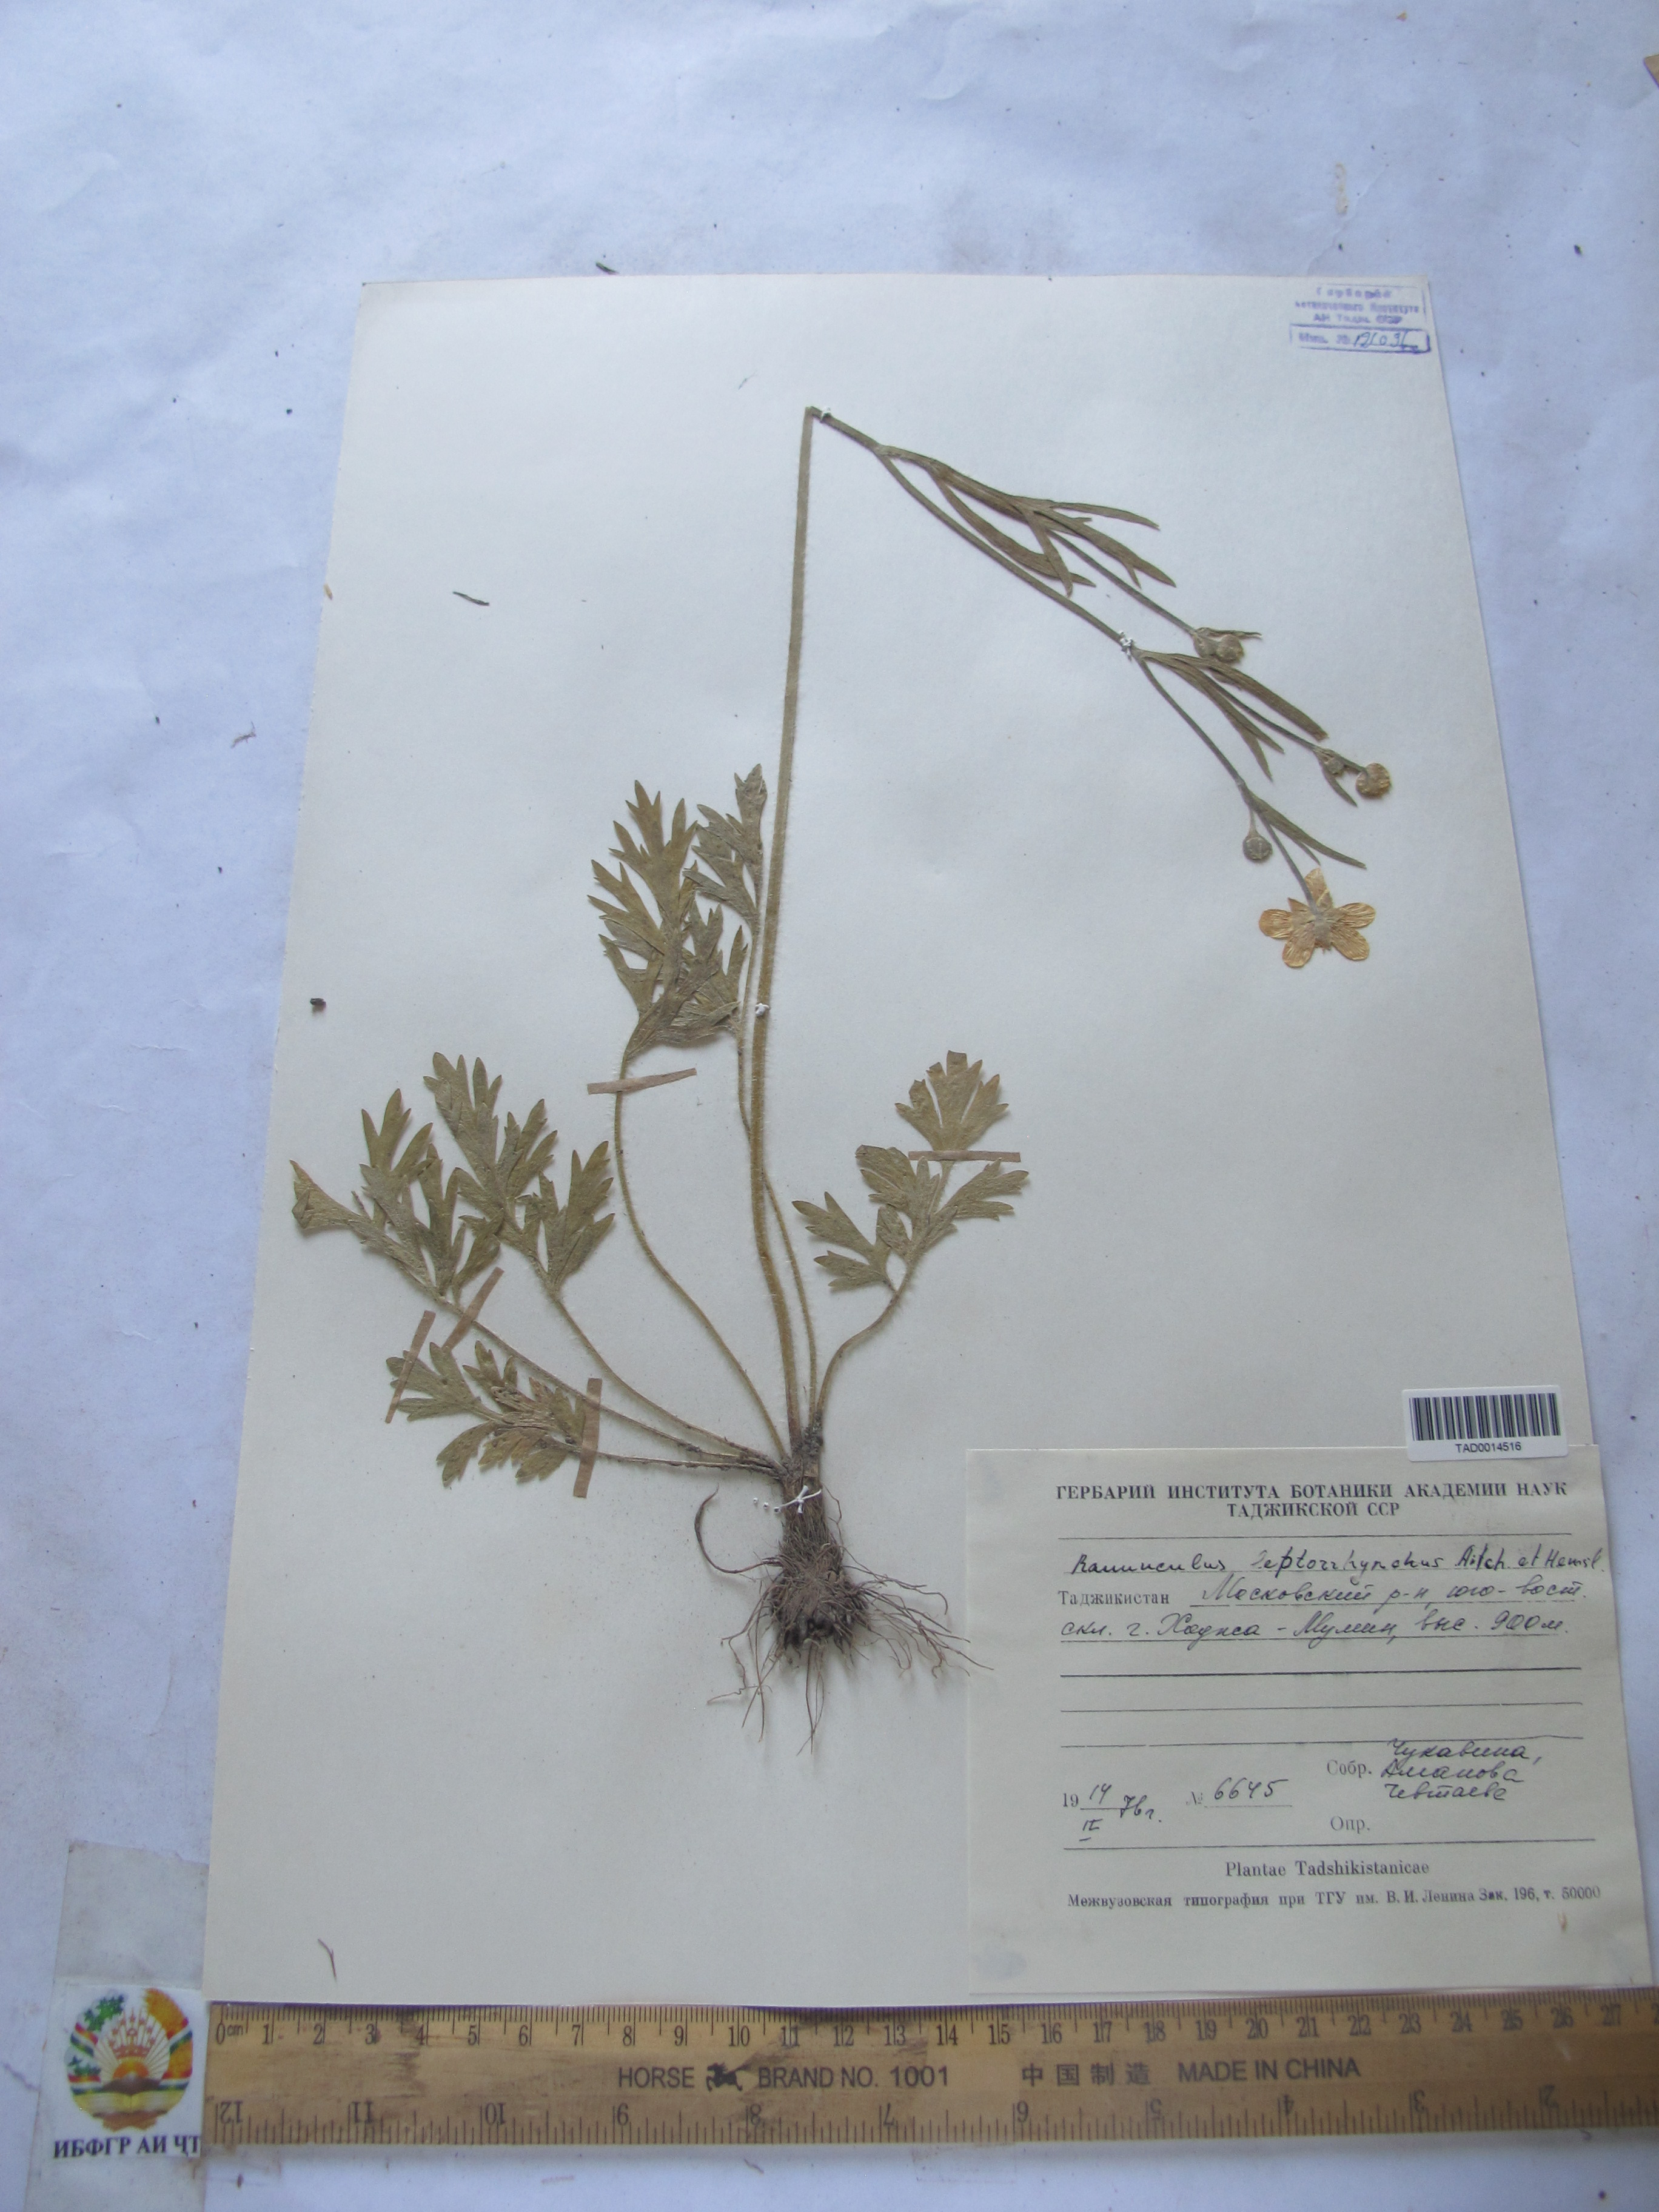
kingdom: Plantae
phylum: Tracheophyta
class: Magnoliopsida
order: Ranunculales
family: Ranunculaceae
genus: Ranunculus
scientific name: Ranunculus leptorrhynchus
